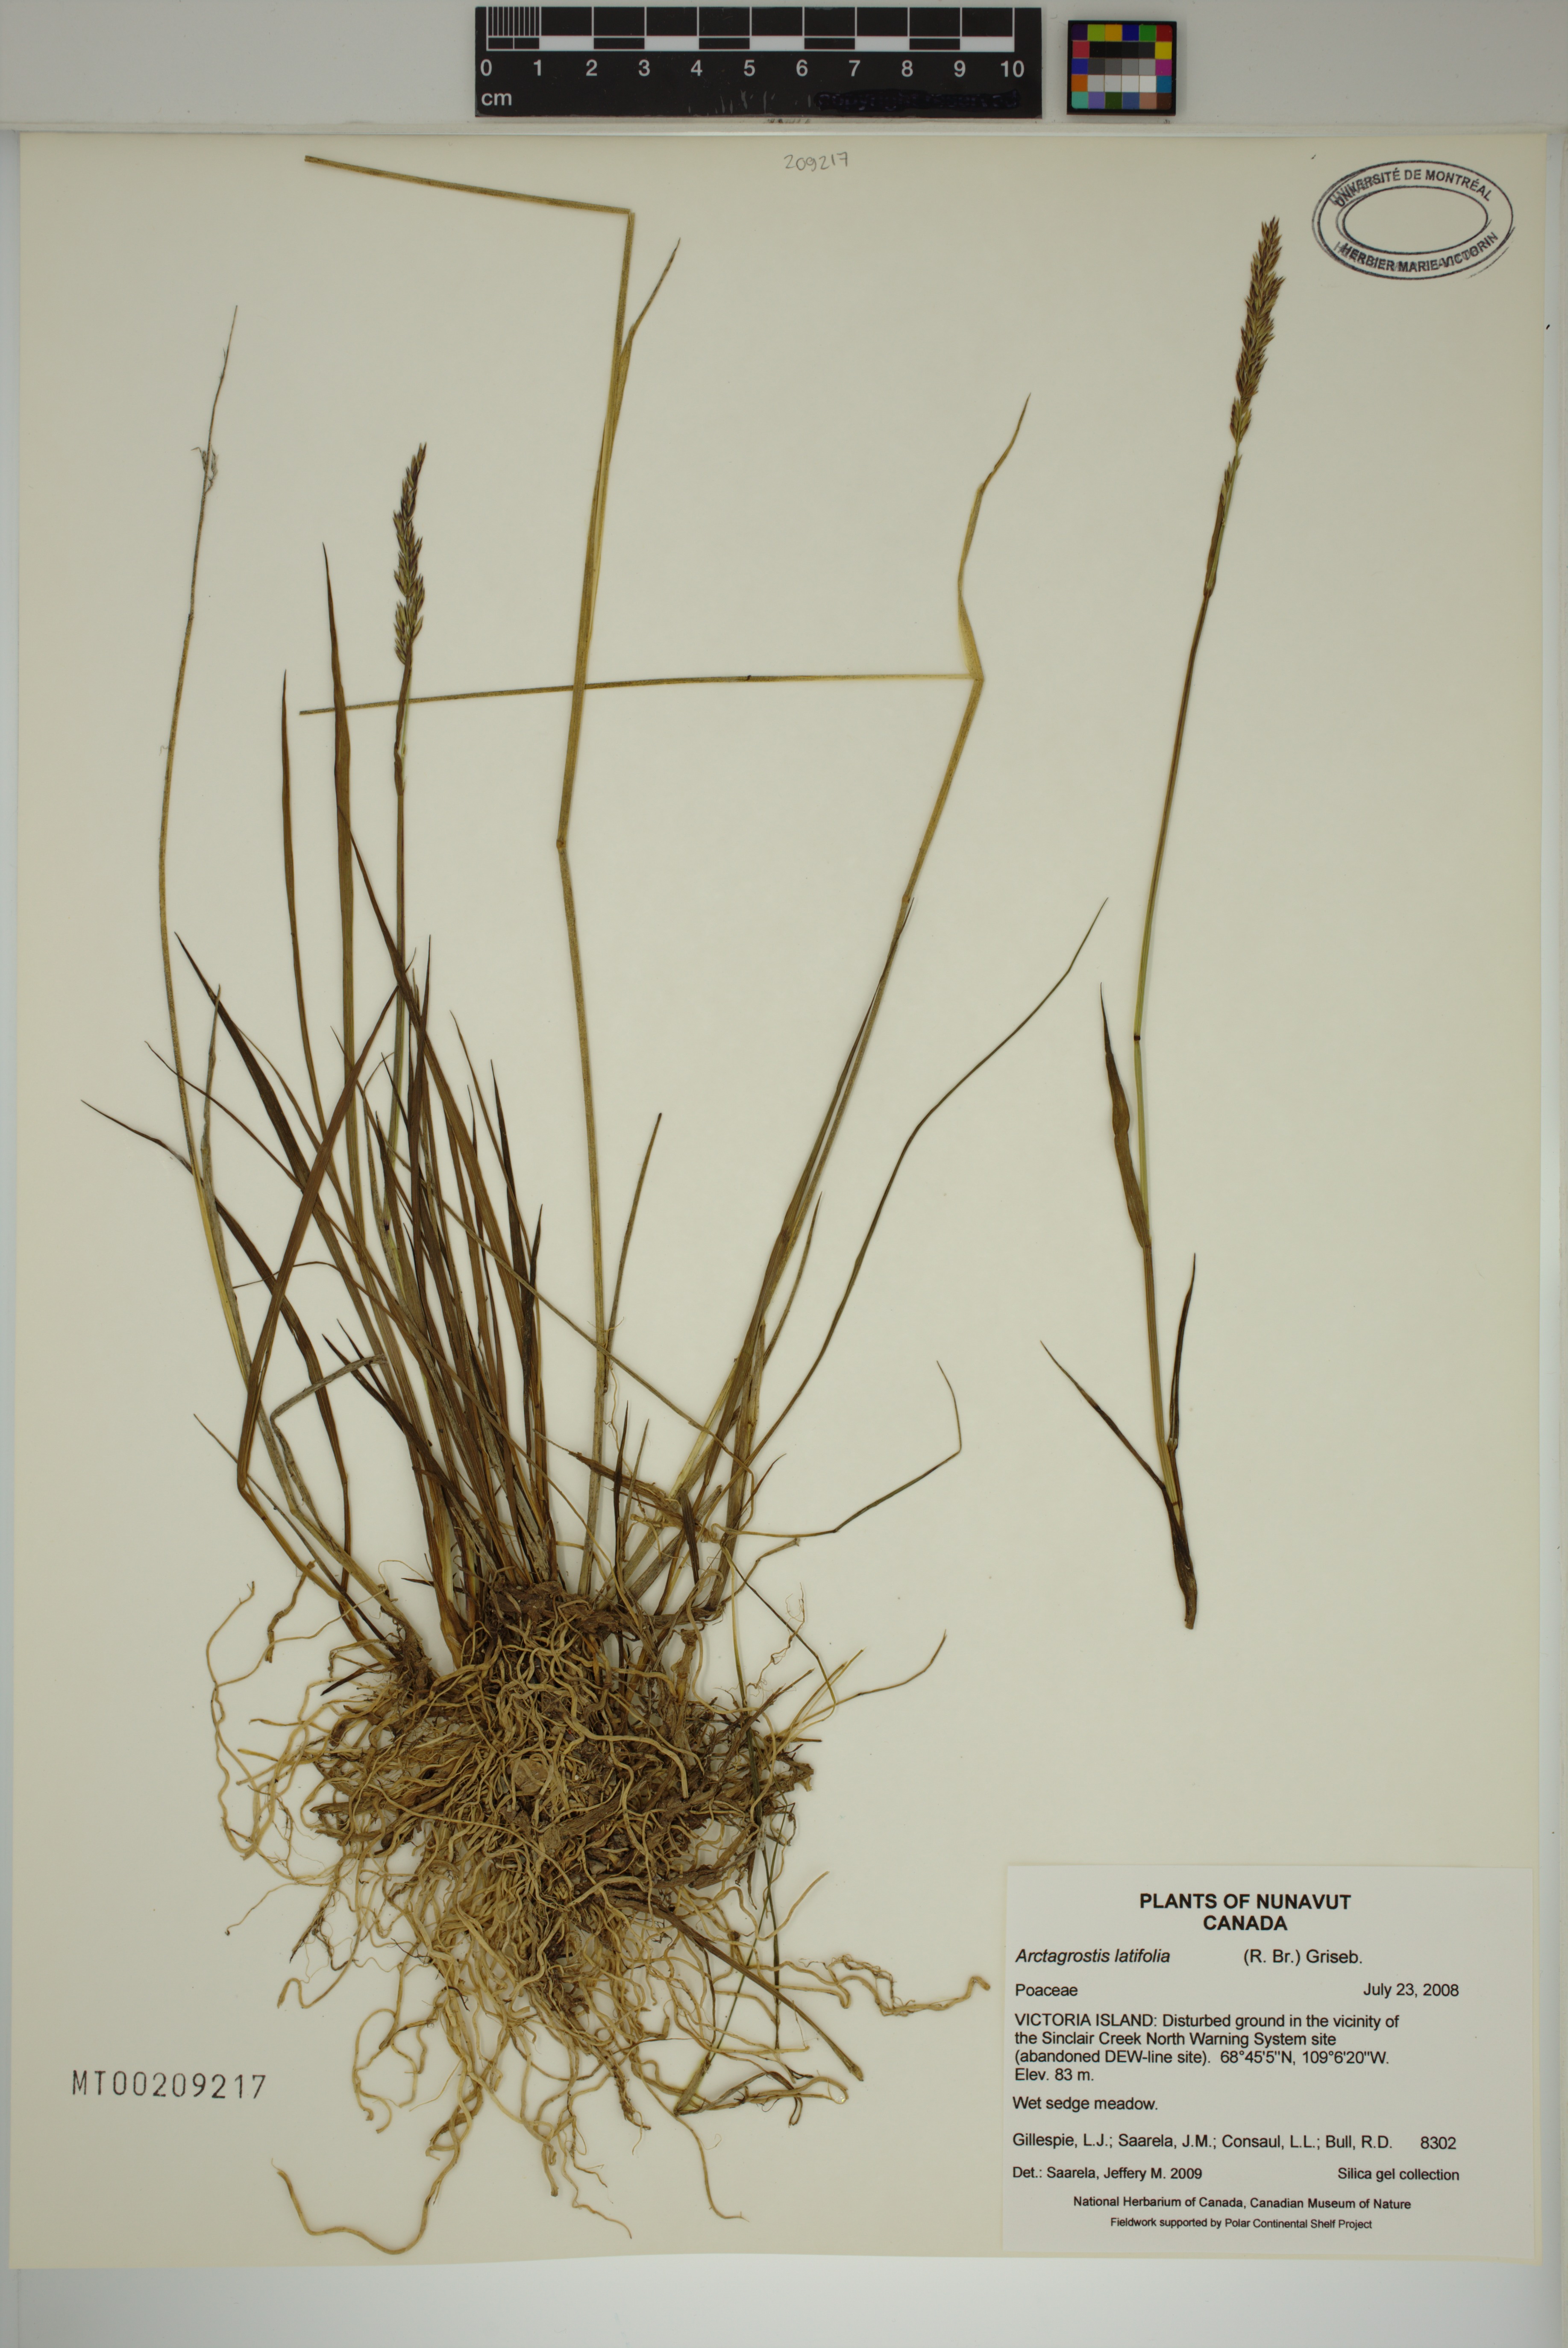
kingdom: Plantae
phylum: Tracheophyta
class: Liliopsida
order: Poales
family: Poaceae
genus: Arctagrostis
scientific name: Arctagrostis latifolia
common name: Arctic grass
